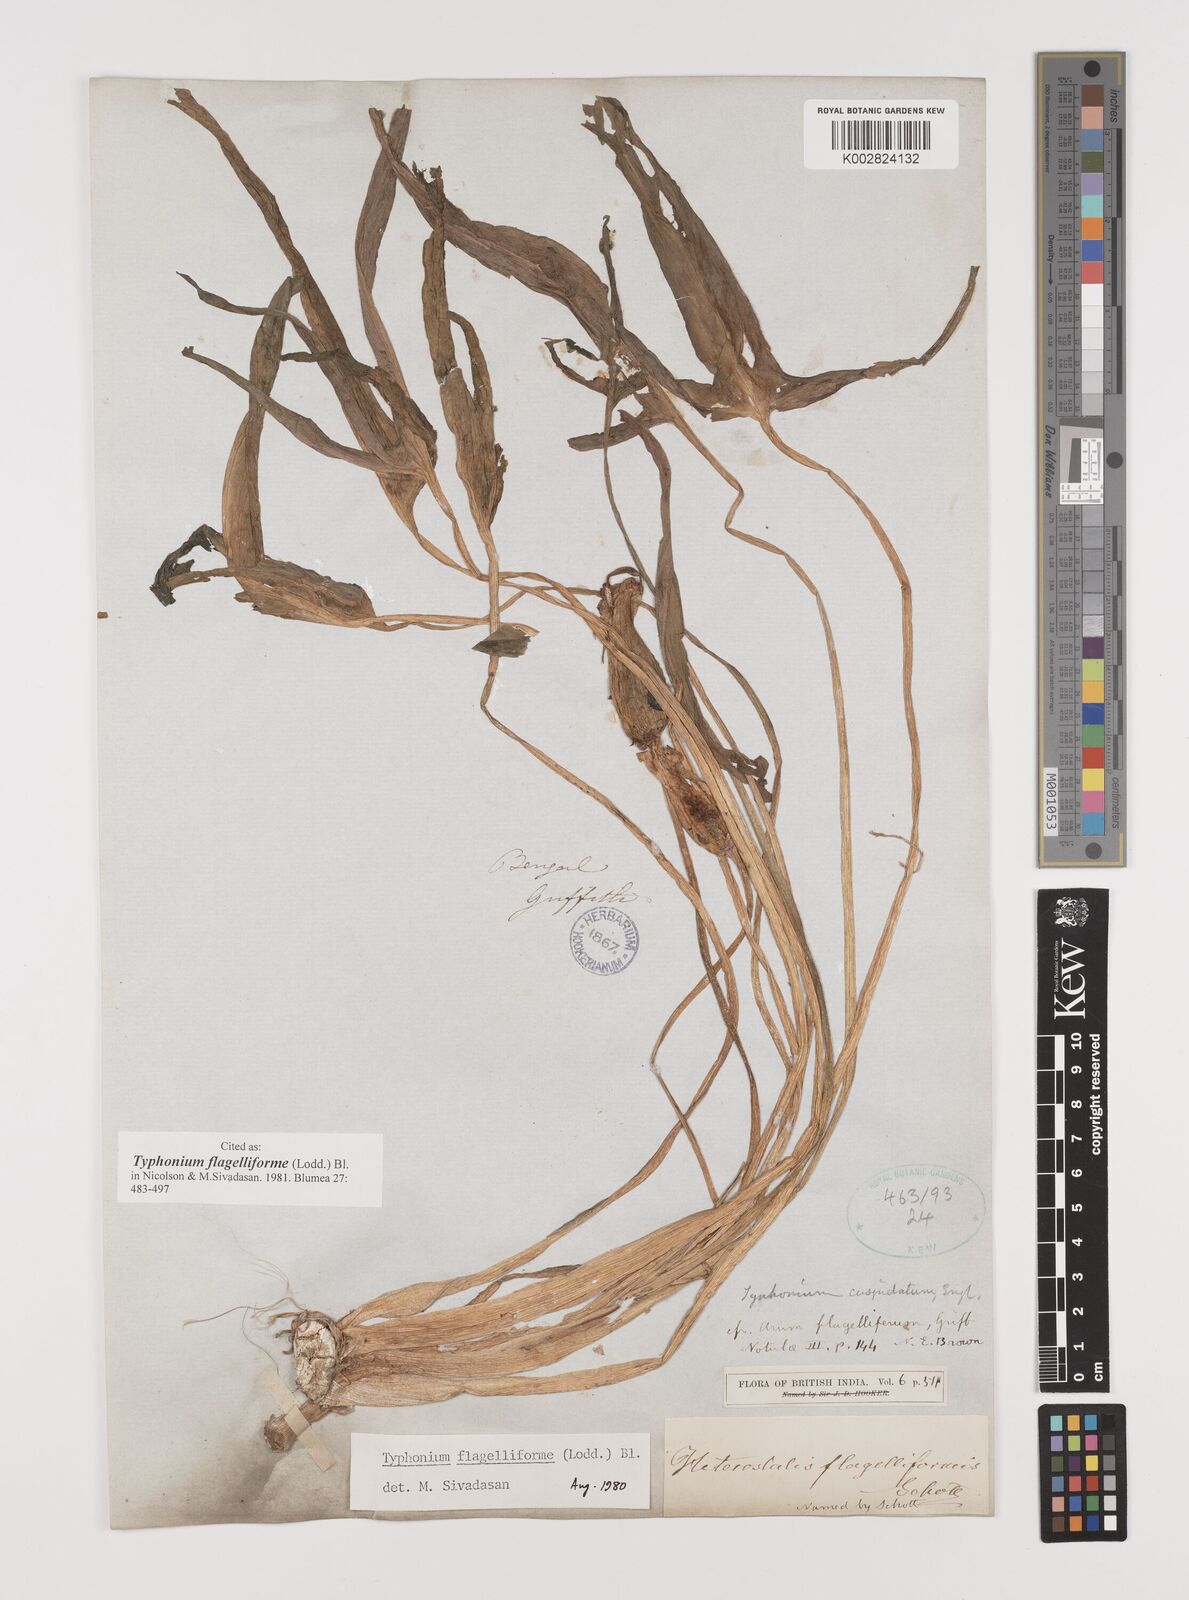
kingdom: Plantae
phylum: Tracheophyta
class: Liliopsida
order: Alismatales
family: Araceae
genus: Typhonium
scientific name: Typhonium flagelliforme
